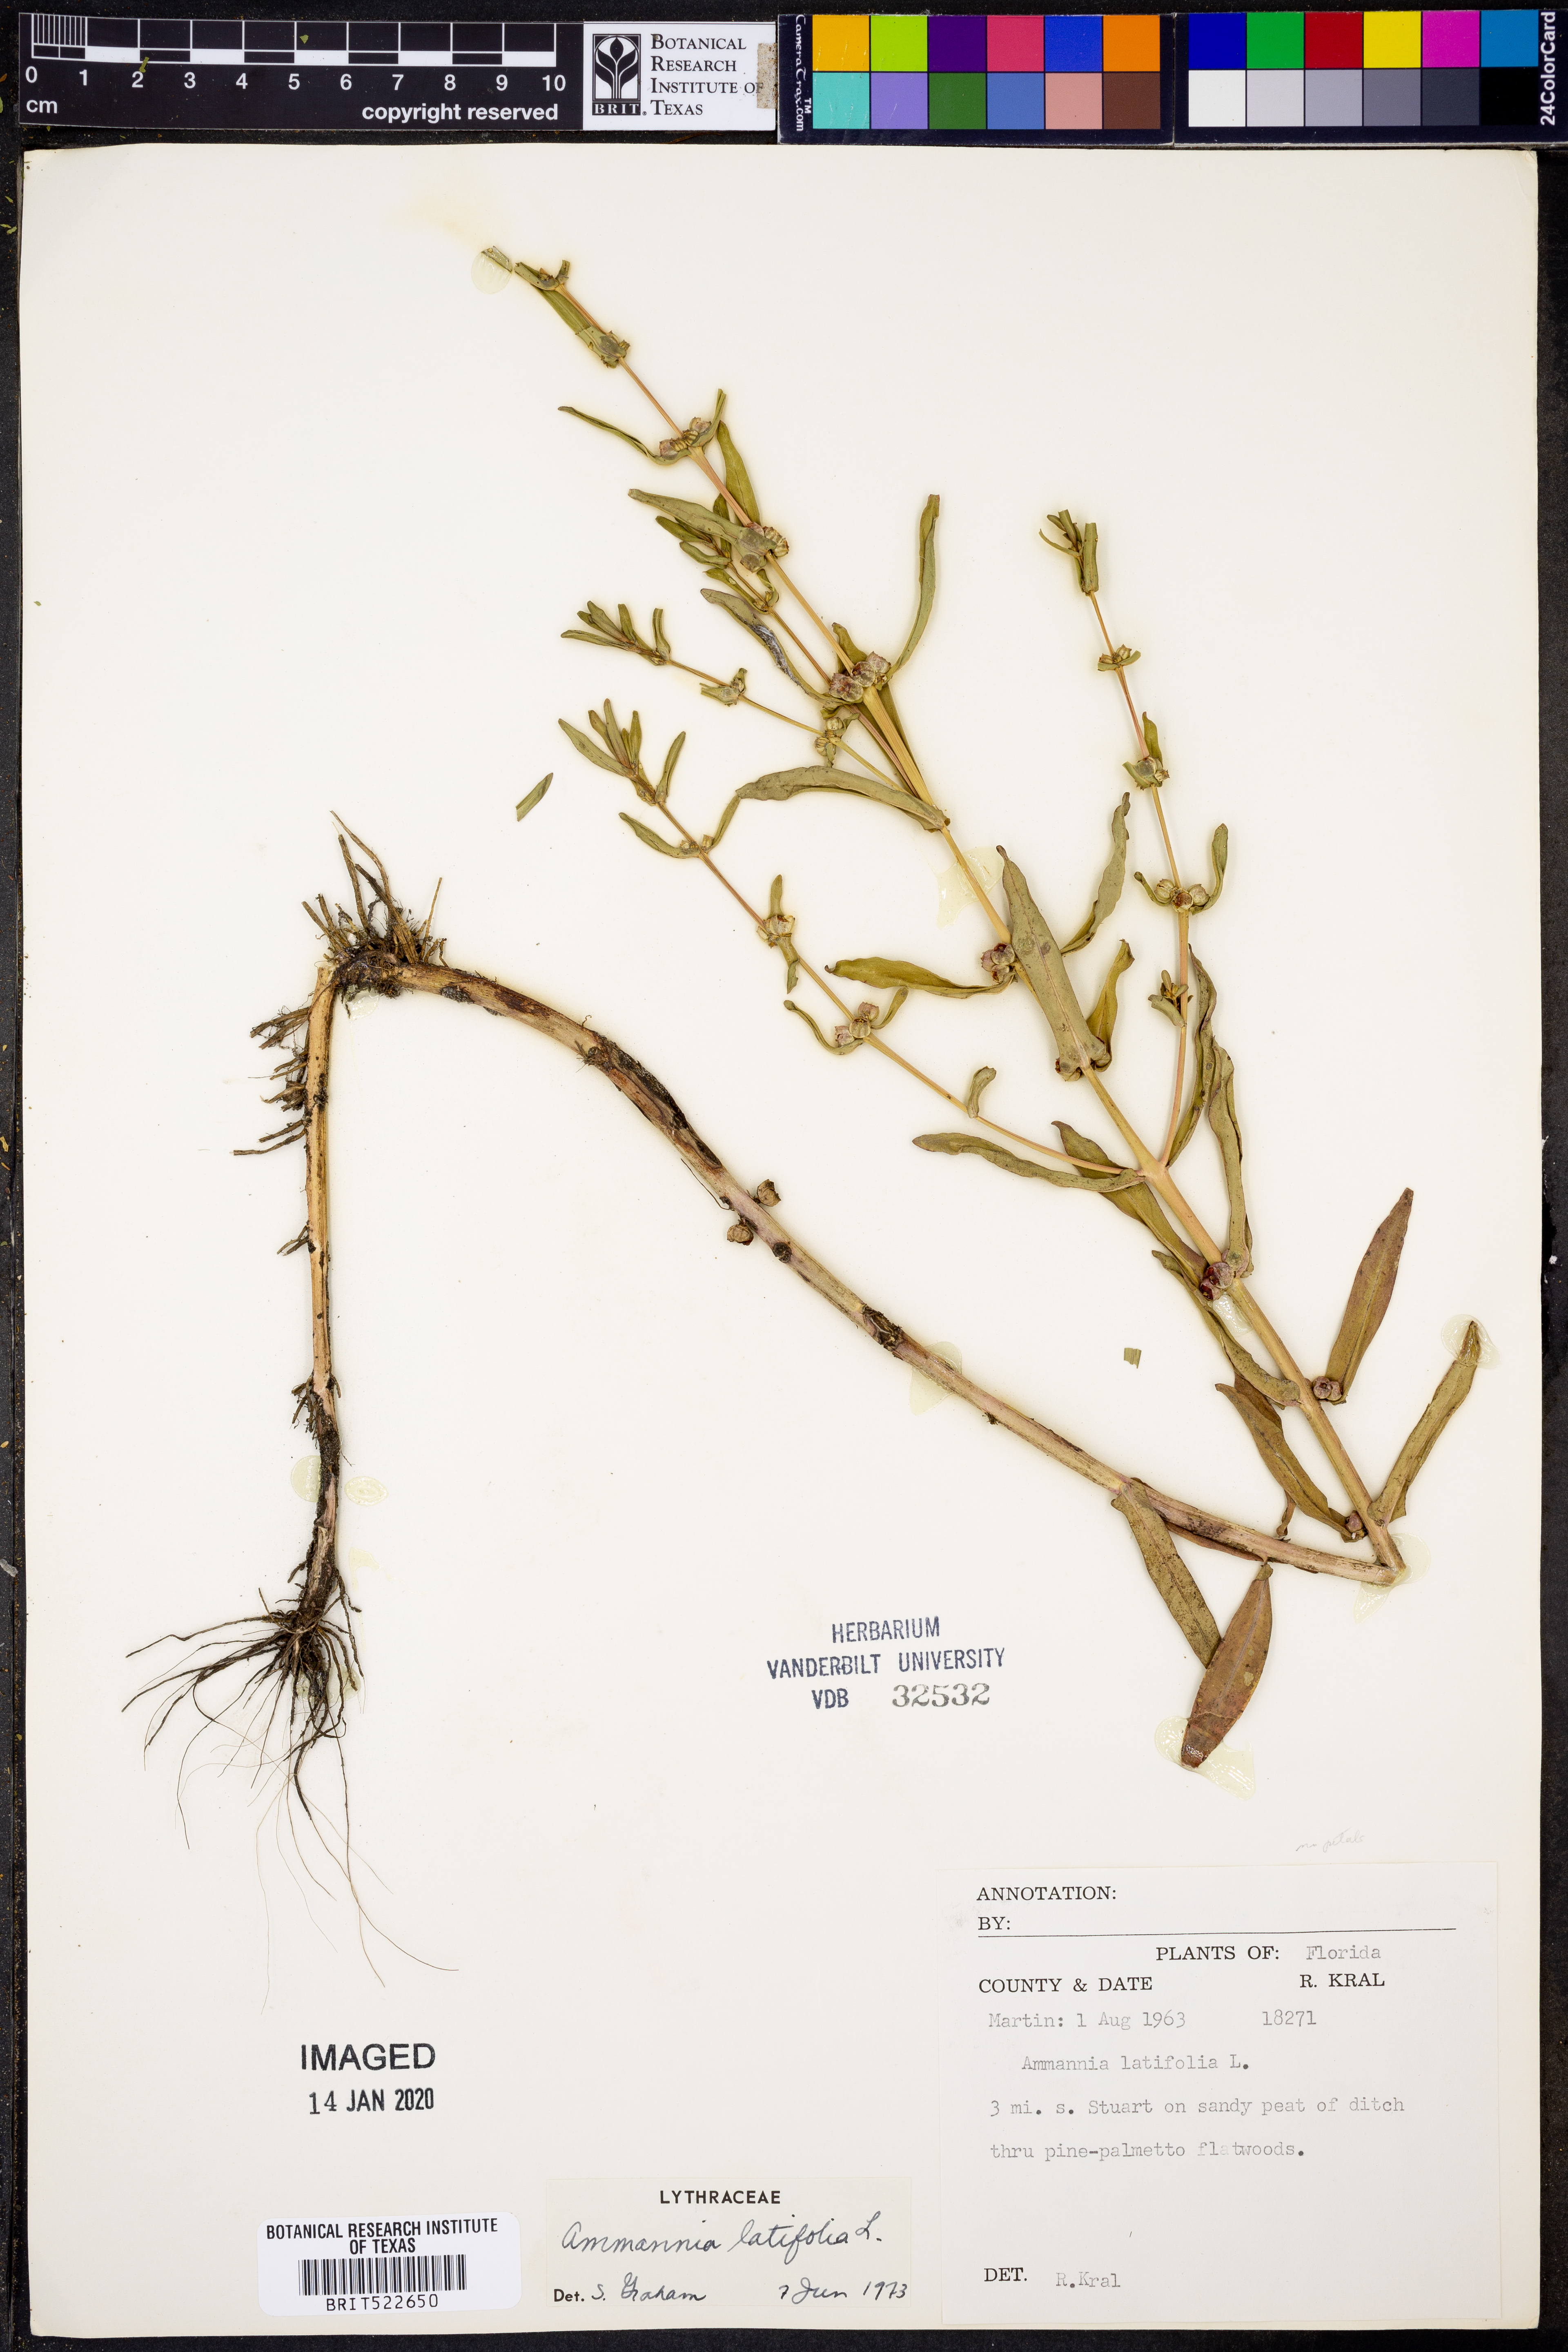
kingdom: Plantae
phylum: Tracheophyta
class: Magnoliopsida
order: Myrtales
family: Lythraceae
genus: Ammannia
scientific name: Ammannia latifolia
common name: Toothcup
